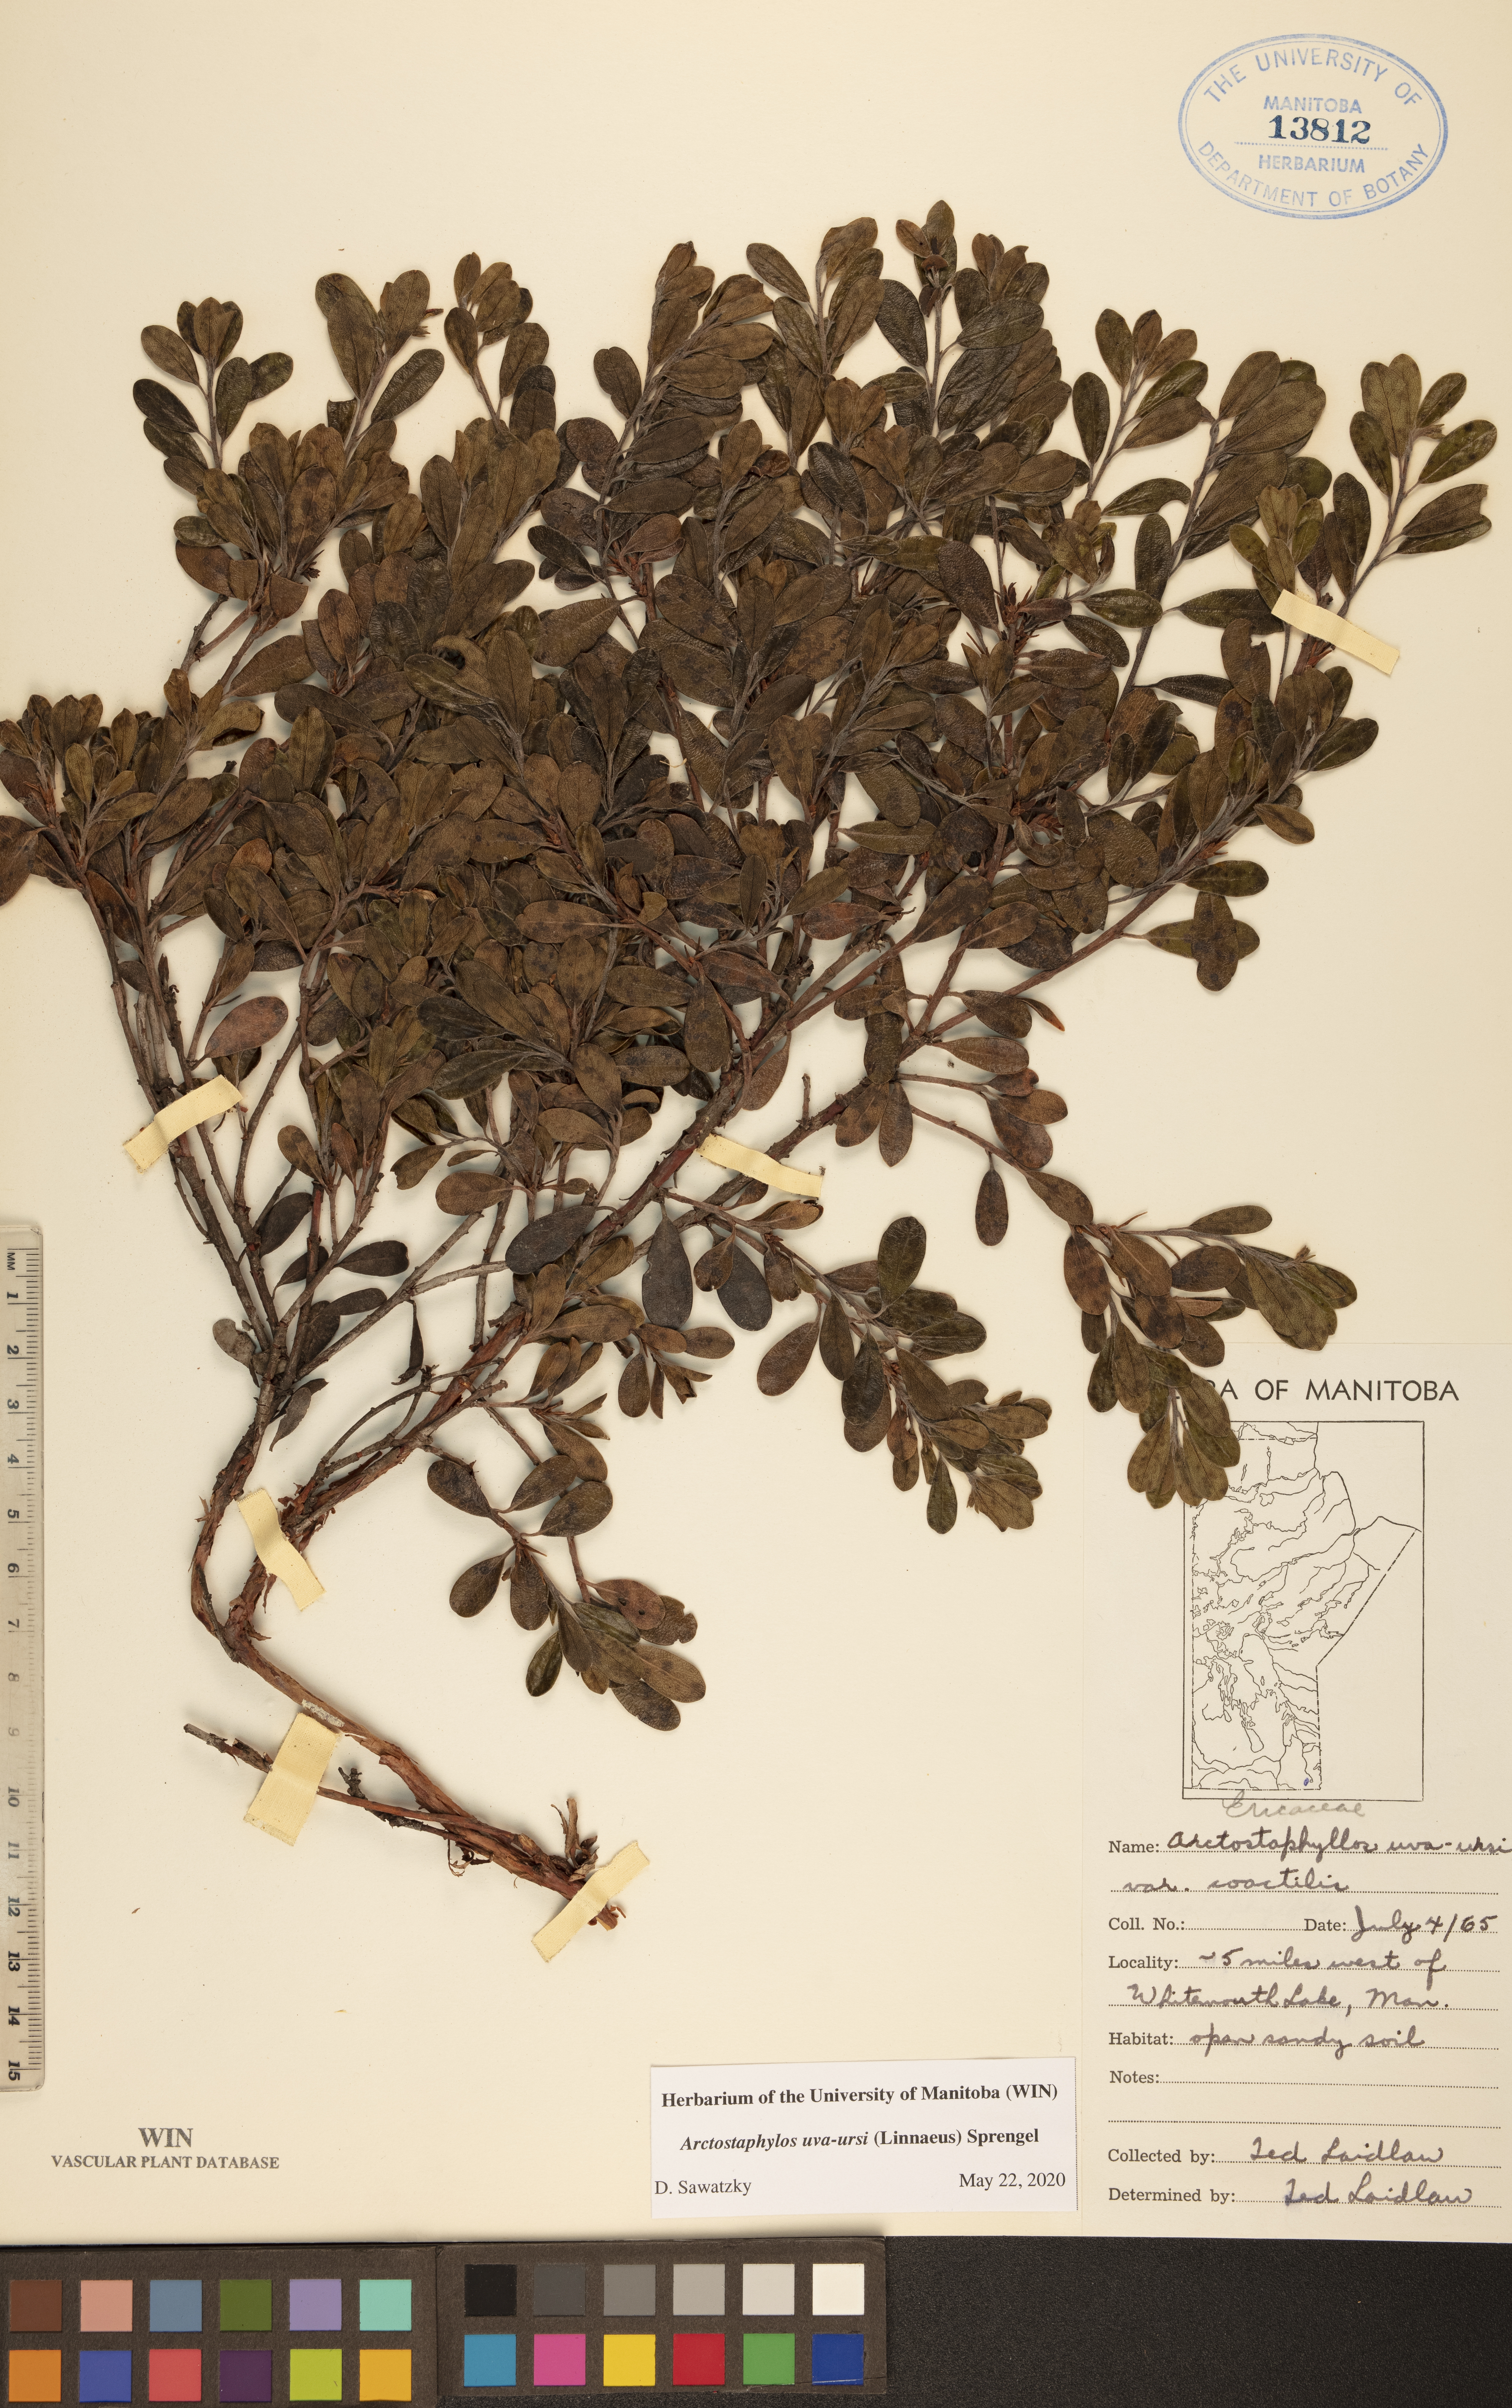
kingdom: Plantae
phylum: Tracheophyta
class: Magnoliopsida
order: Ericales
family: Ericaceae
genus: Arctostaphylos
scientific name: Arctostaphylos uva-ursi
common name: Bearberry
